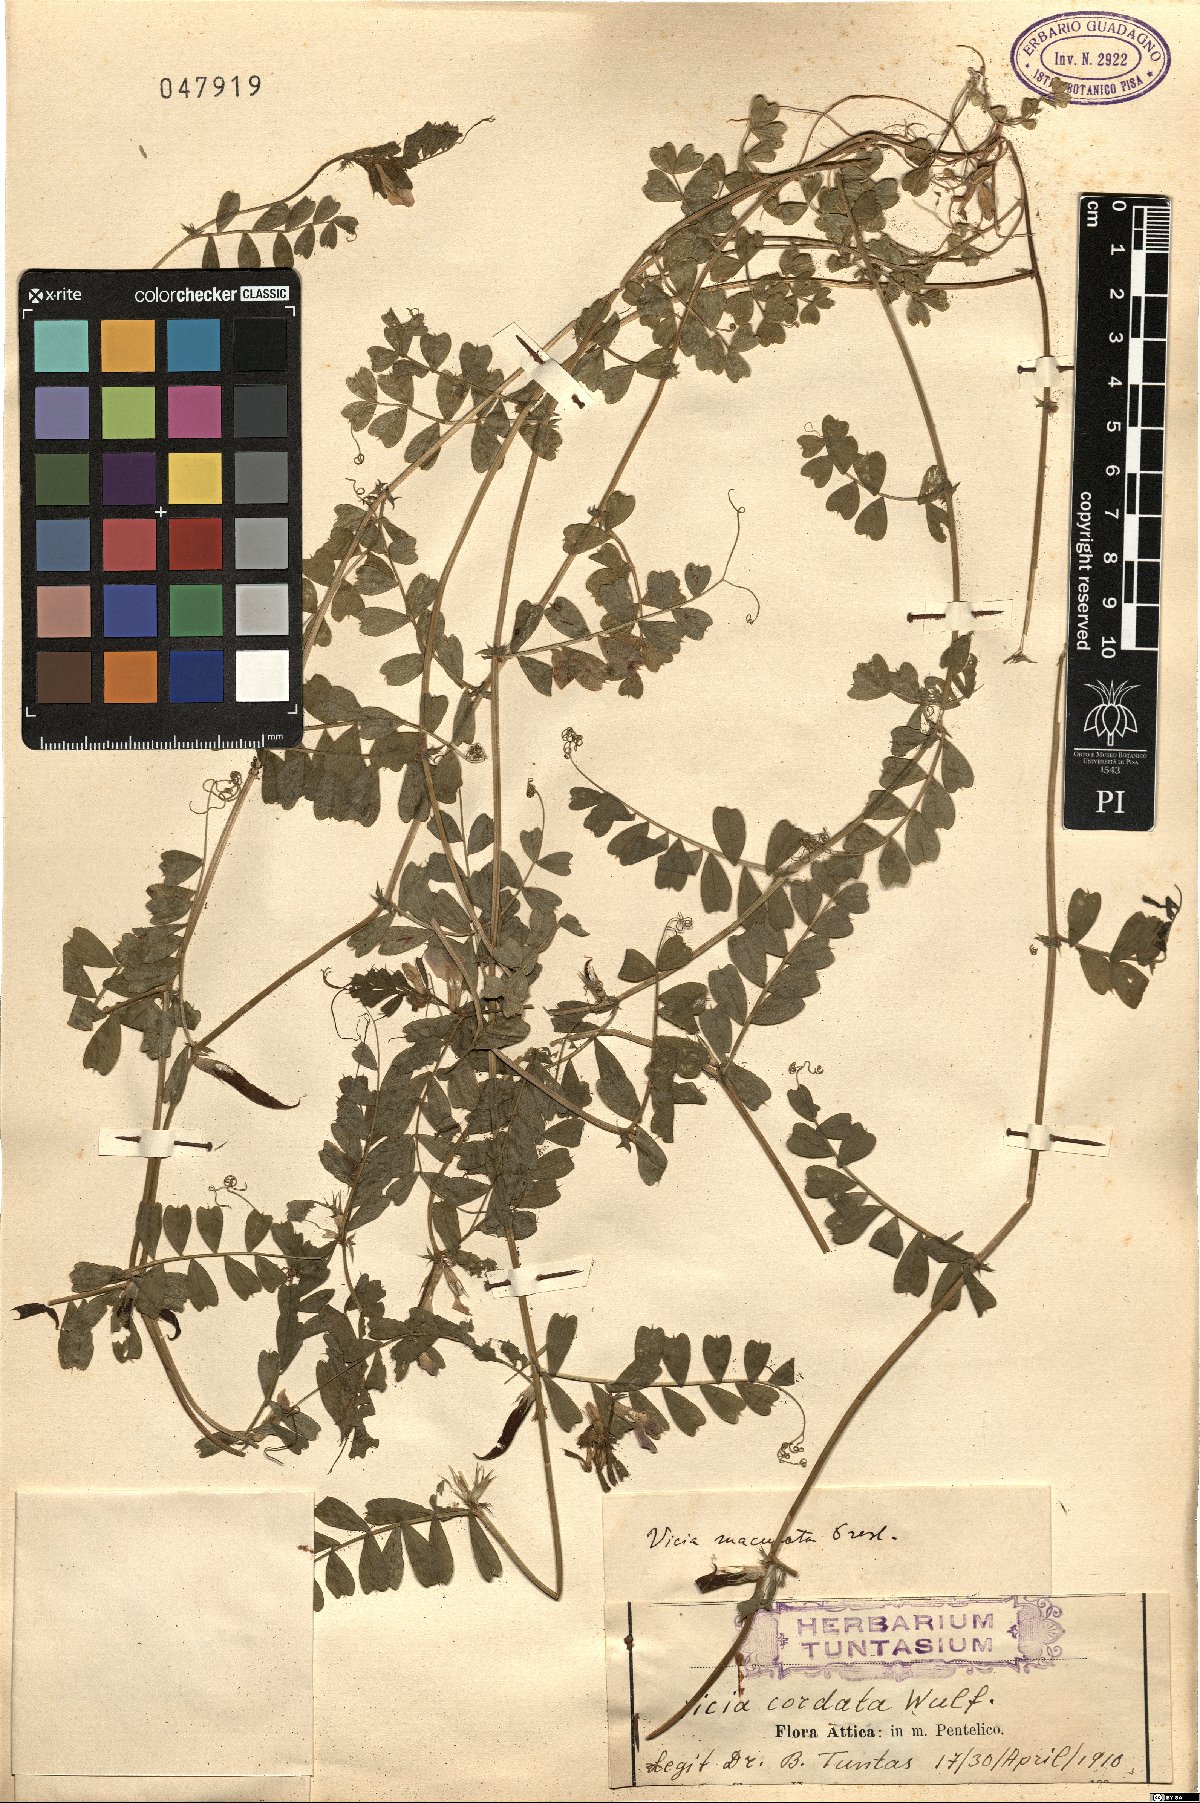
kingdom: Plantae
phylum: Tracheophyta
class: Magnoliopsida
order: Fabales
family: Fabaceae
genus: Vicia
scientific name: Vicia sativa
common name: Garden vetch
